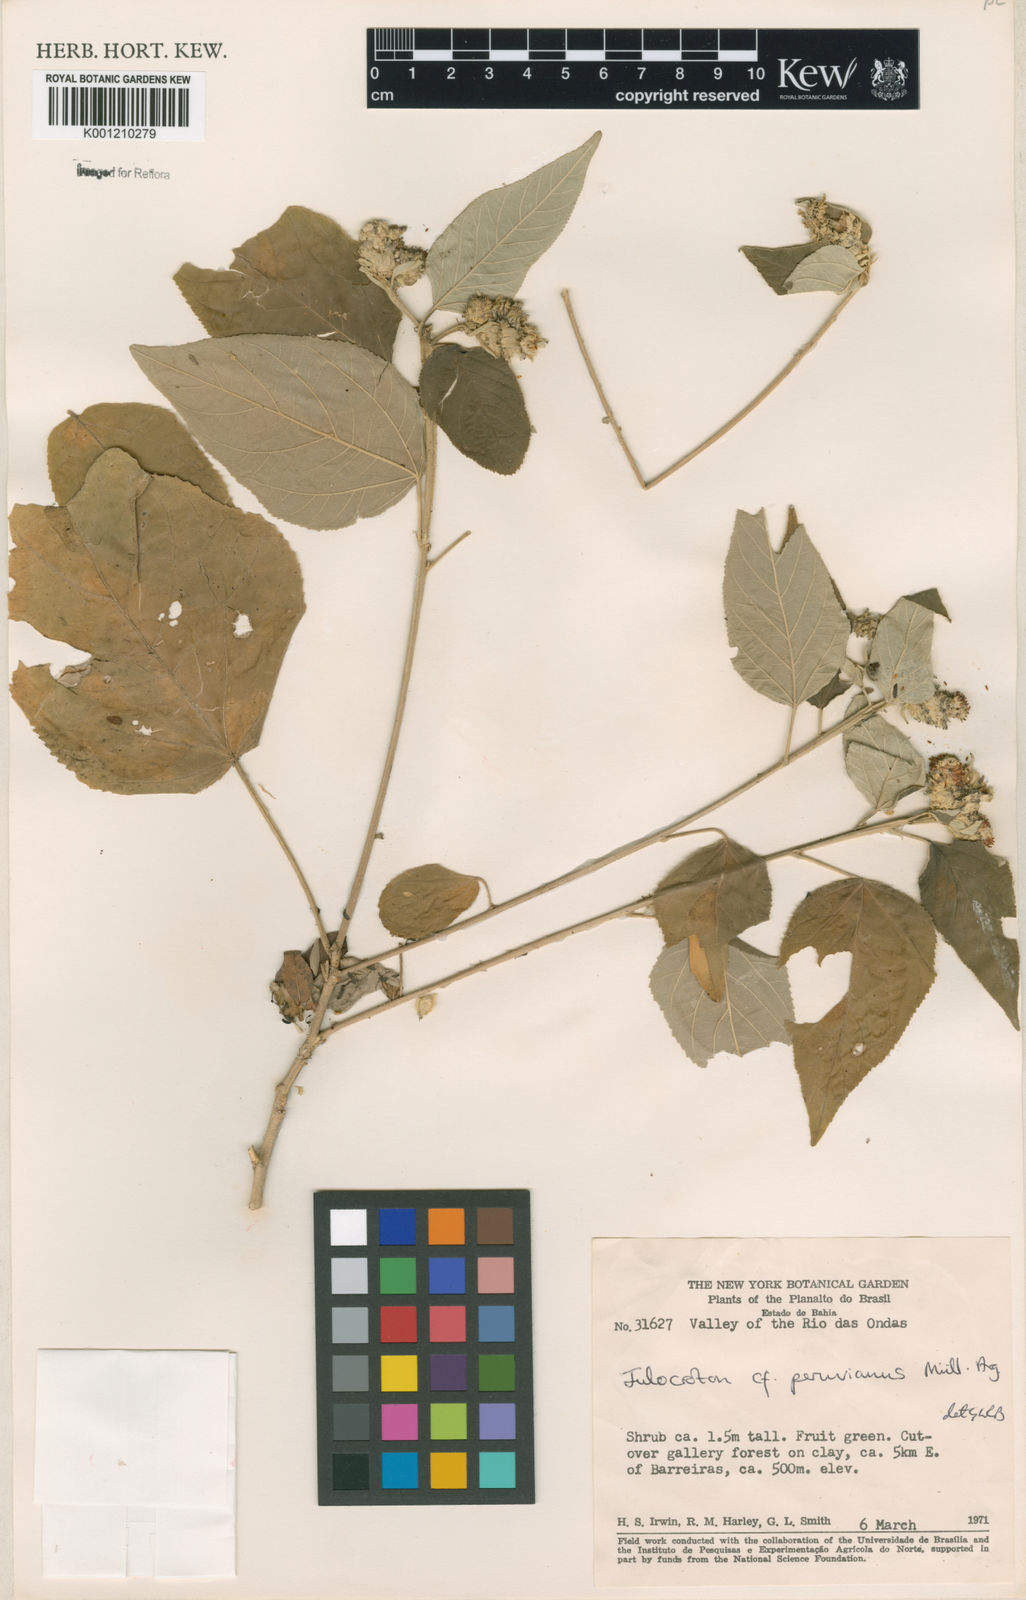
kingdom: Plantae
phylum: Tracheophyta
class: Magnoliopsida
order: Malpighiales
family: Euphorbiaceae
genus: Croton
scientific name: Croton
